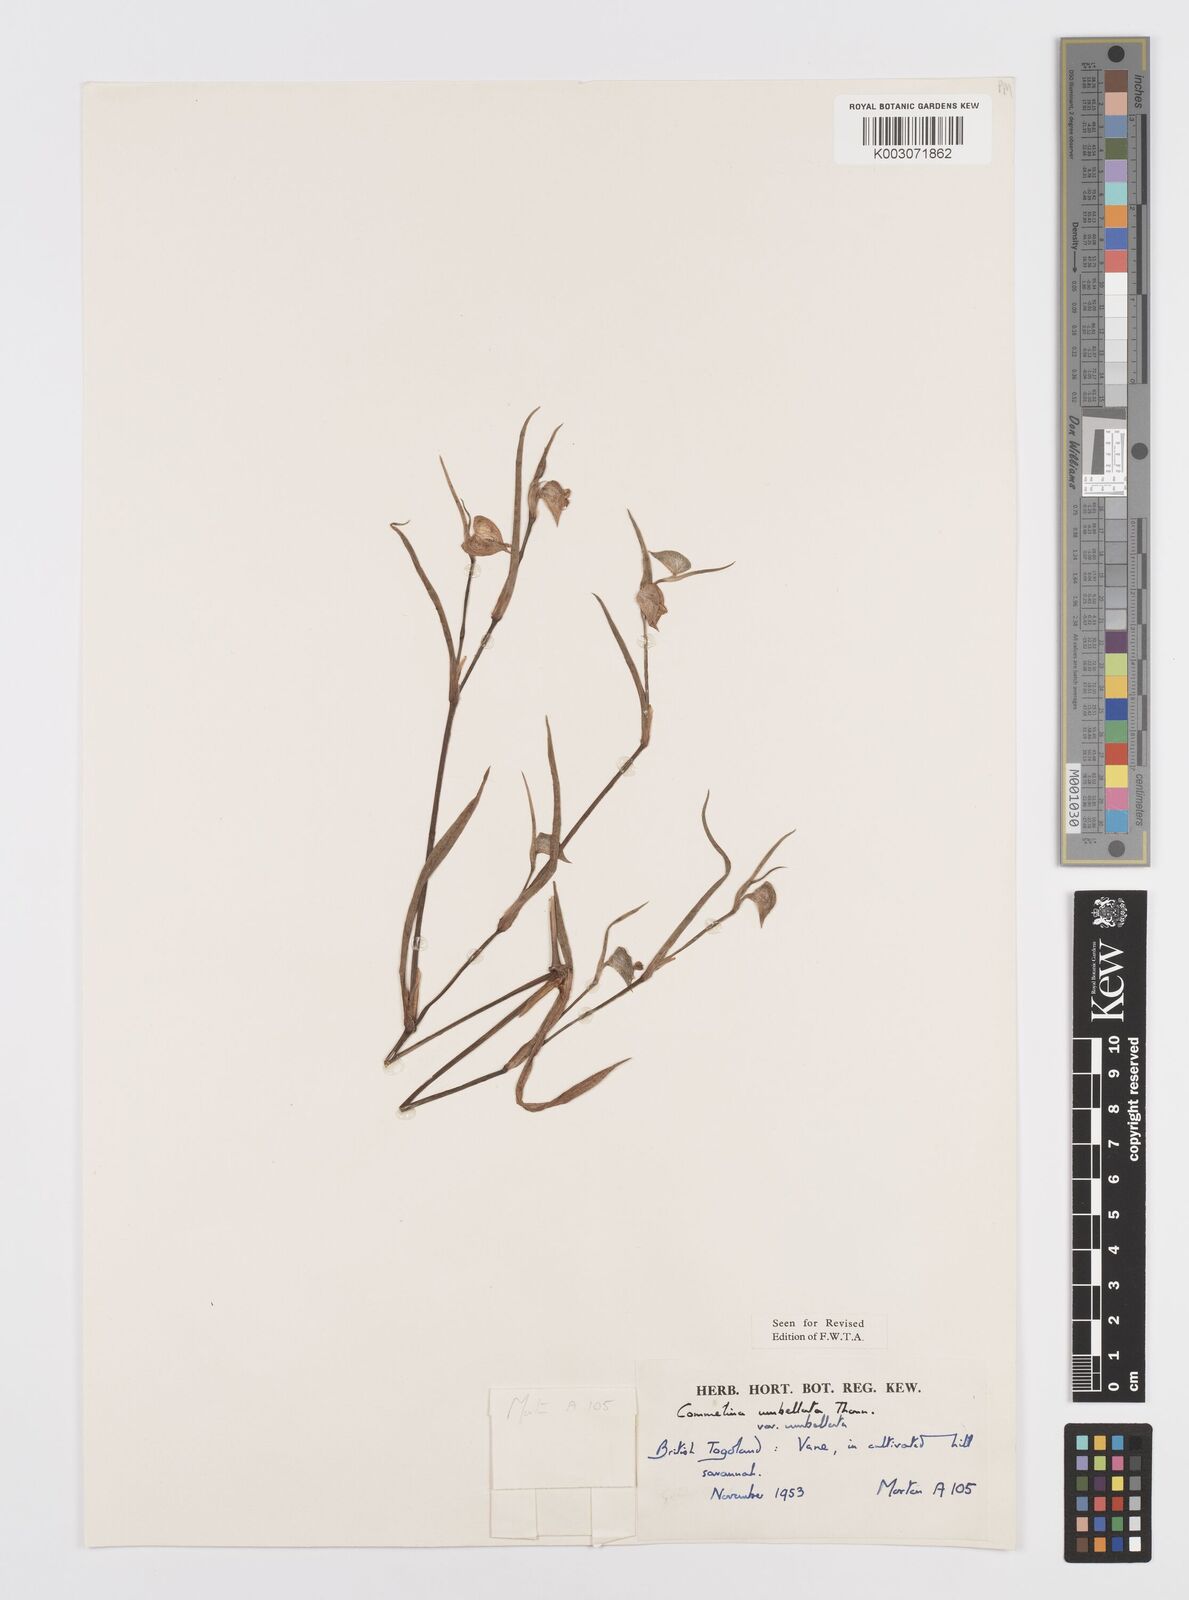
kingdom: Plantae
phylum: Tracheophyta
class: Liliopsida
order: Commelinales
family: Commelinaceae
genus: Commelina
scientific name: Commelina
